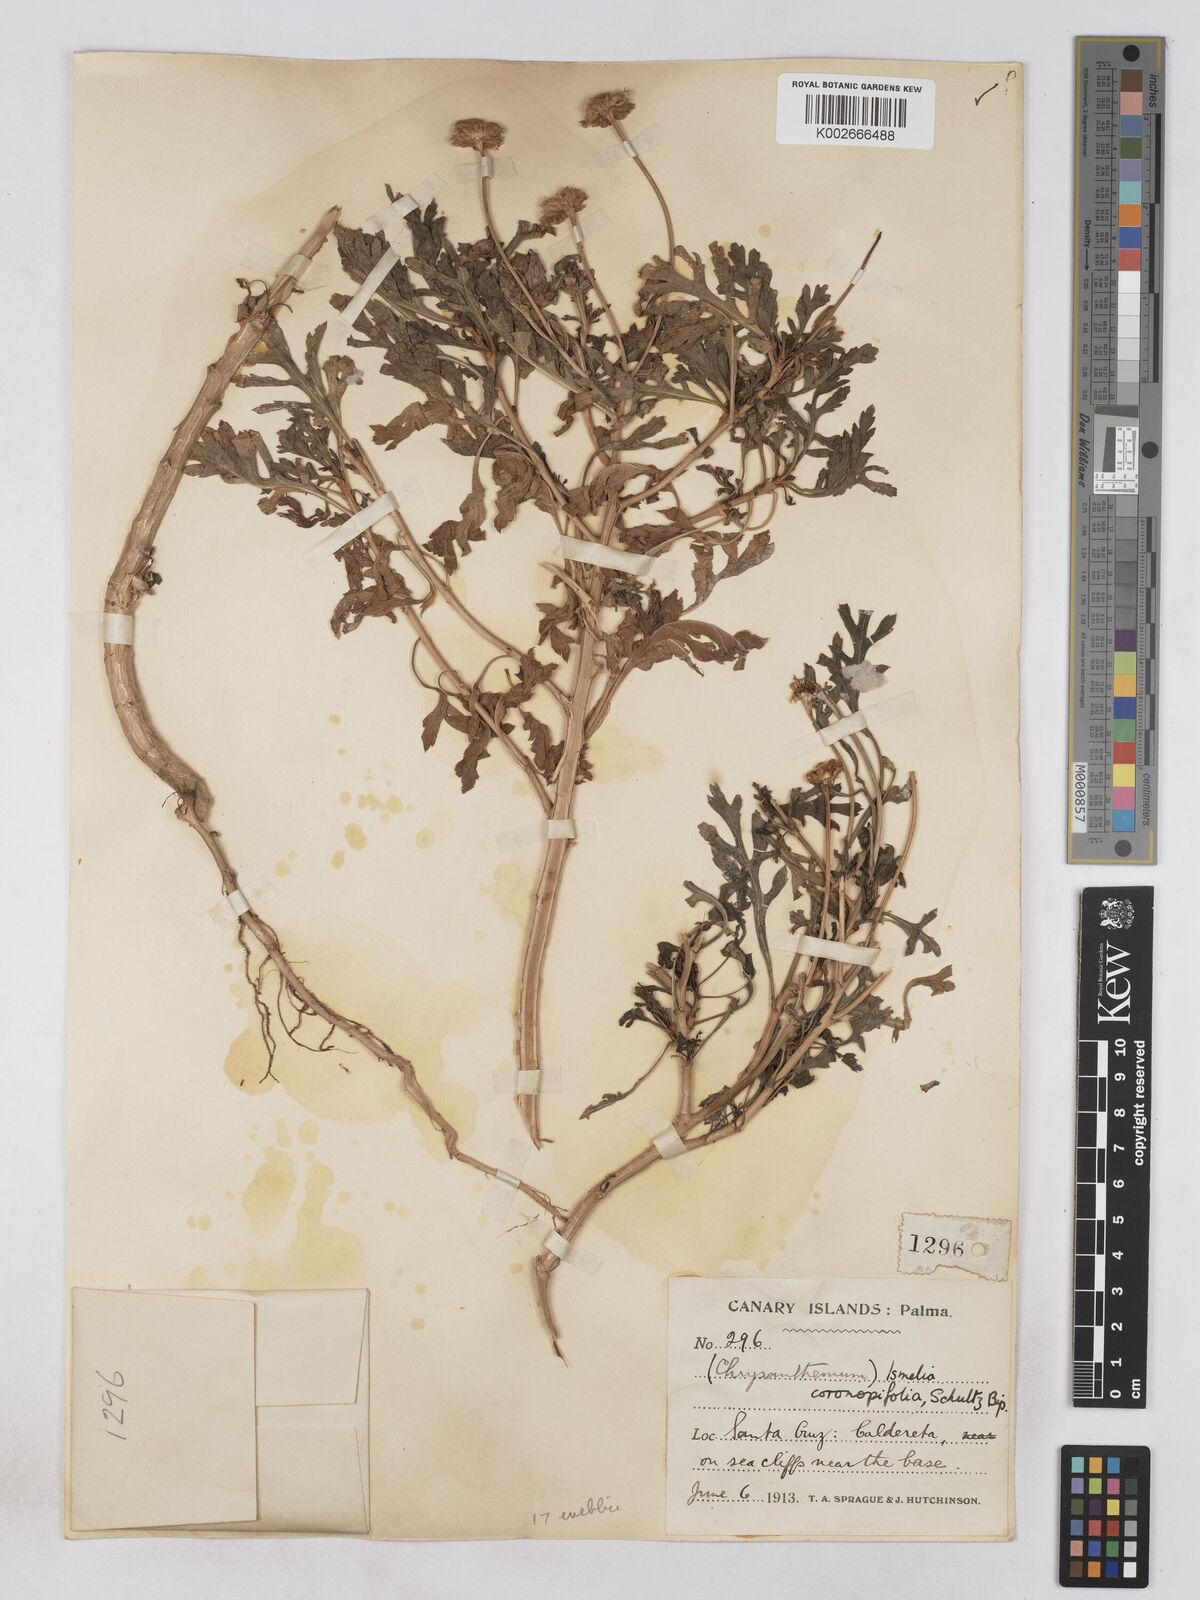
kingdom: Plantae
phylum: Tracheophyta
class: Magnoliopsida
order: Asterales
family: Asteraceae
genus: Argyranthemum
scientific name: Argyranthemum webbii
